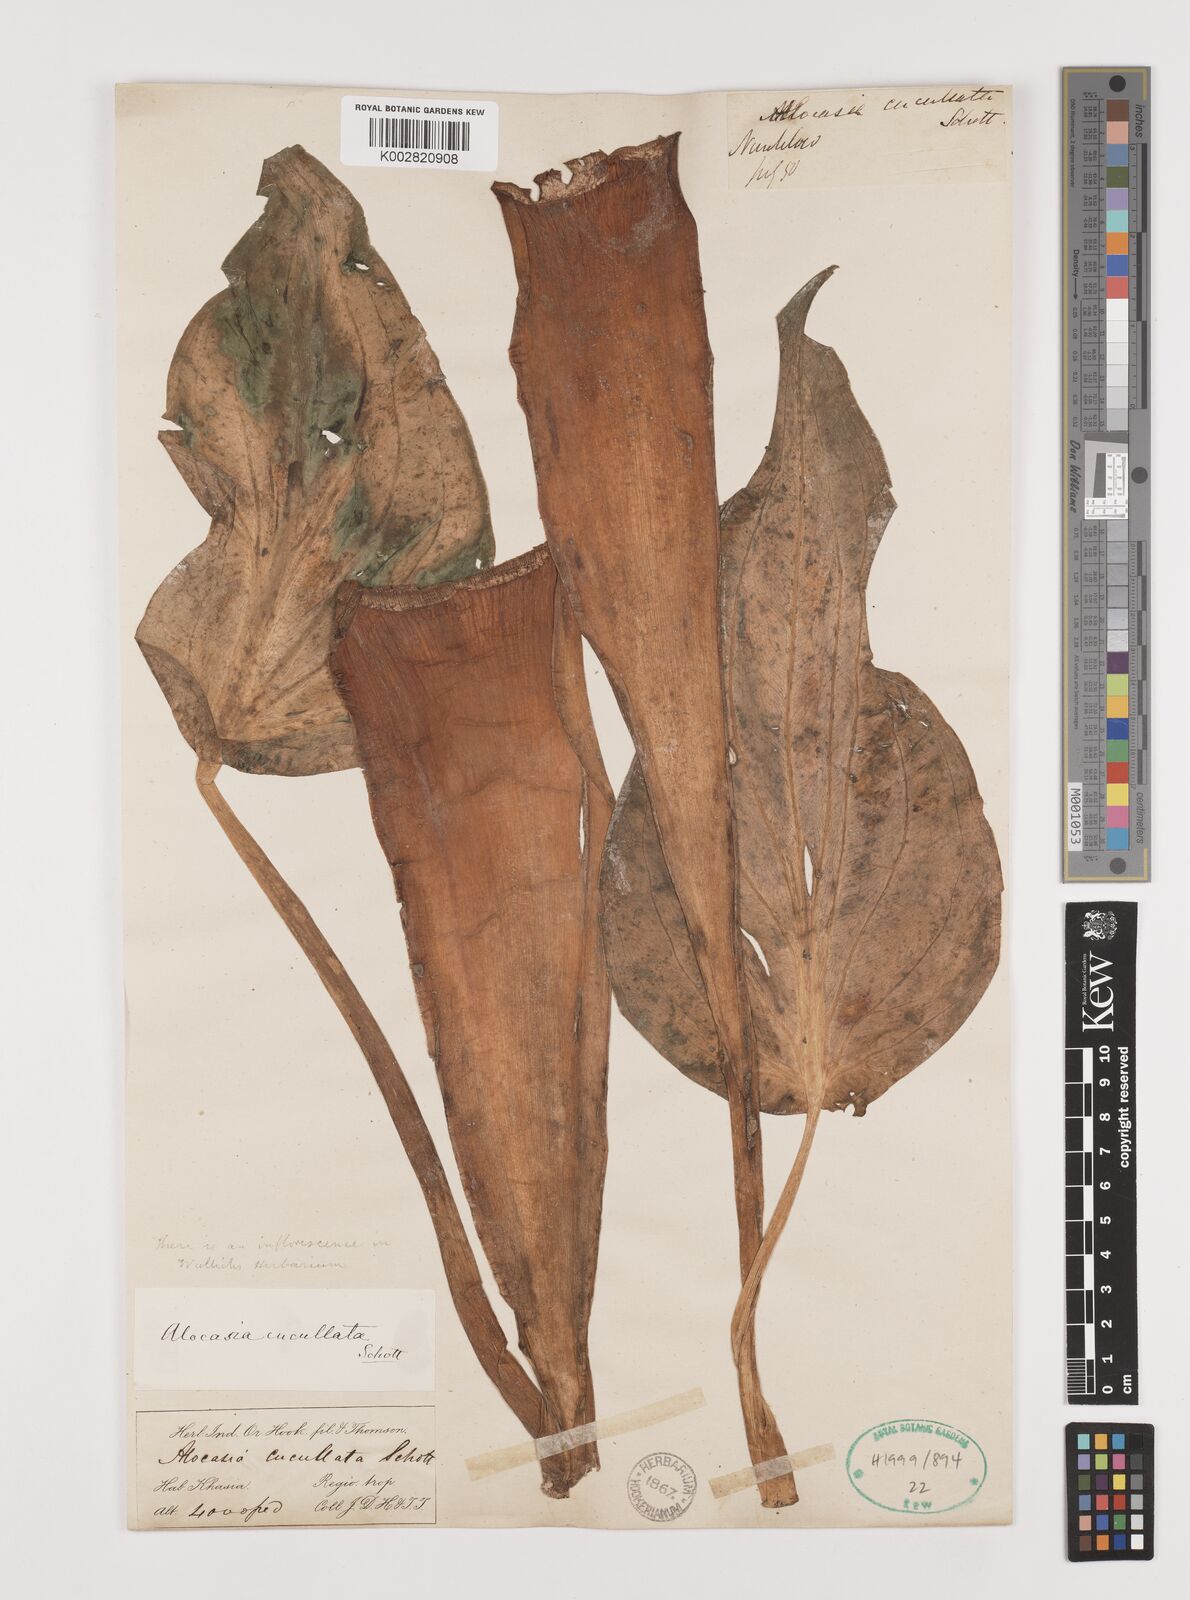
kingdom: Plantae
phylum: Tracheophyta
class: Liliopsida
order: Alismatales
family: Araceae
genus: Alocasia
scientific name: Alocasia cucullata
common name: Buddha's hand
